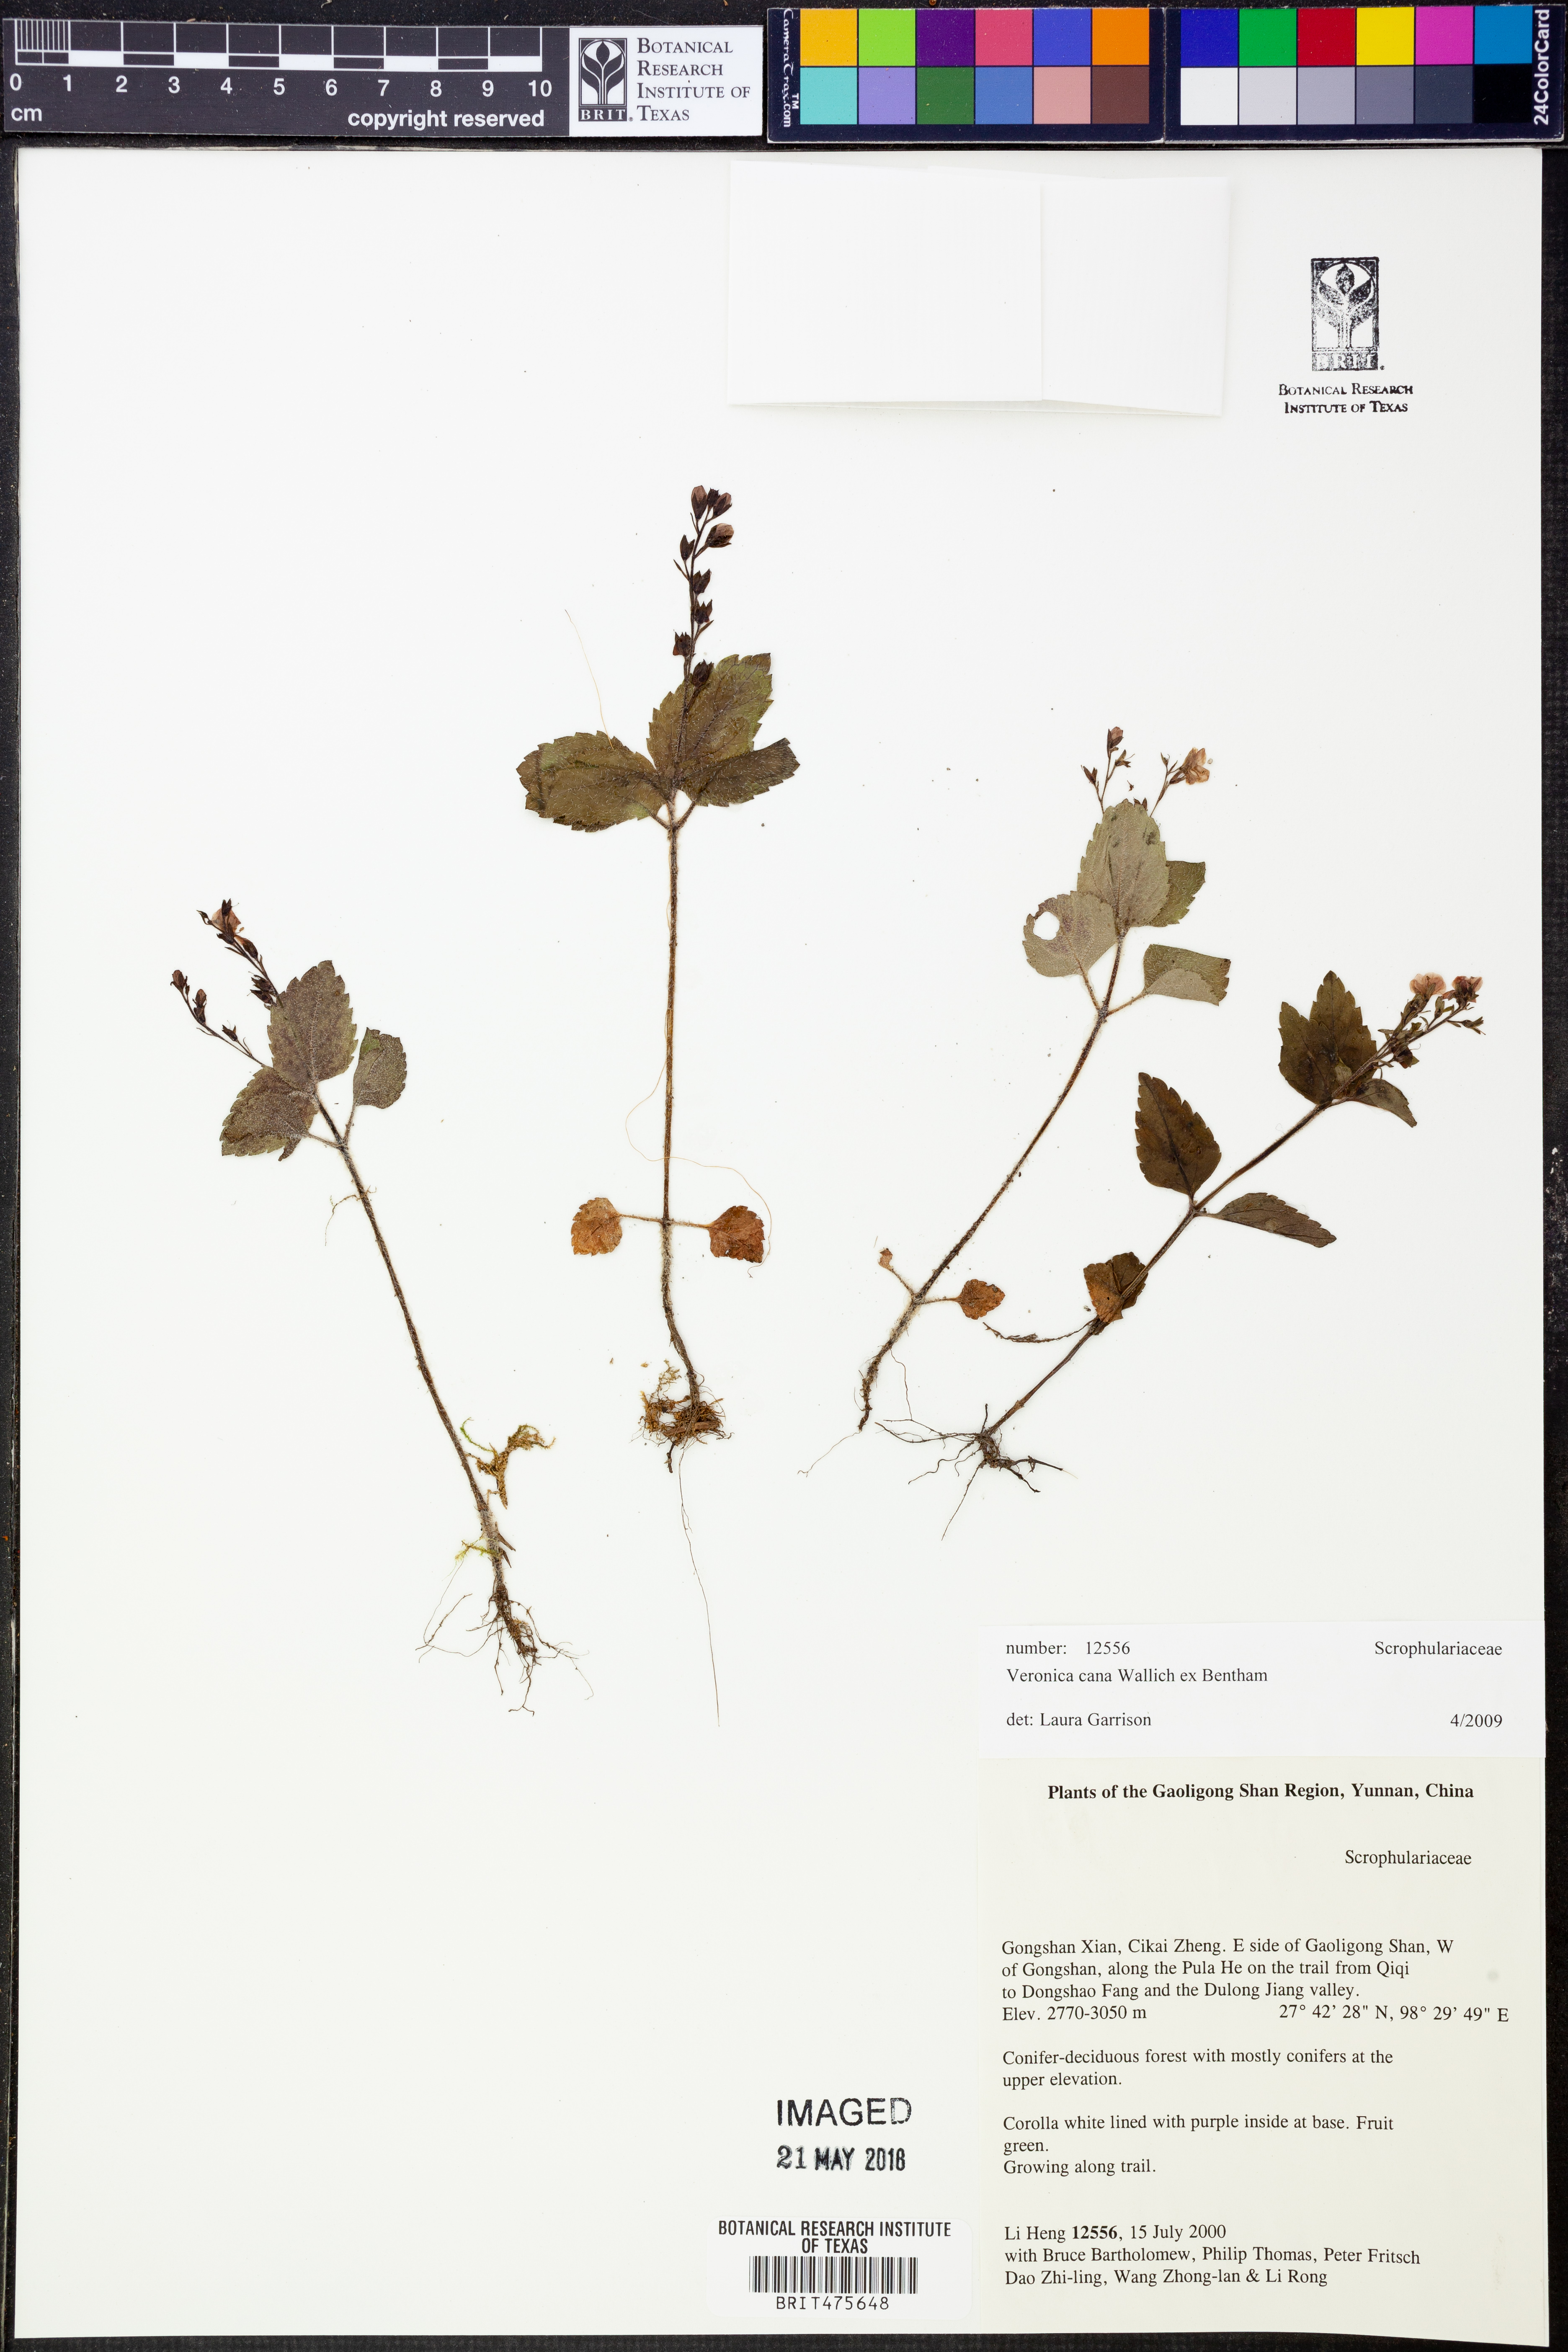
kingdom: Plantae
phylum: Tracheophyta
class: Magnoliopsida
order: Lamiales
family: Plantaginaceae
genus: Veronica
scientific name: Veronica cana
